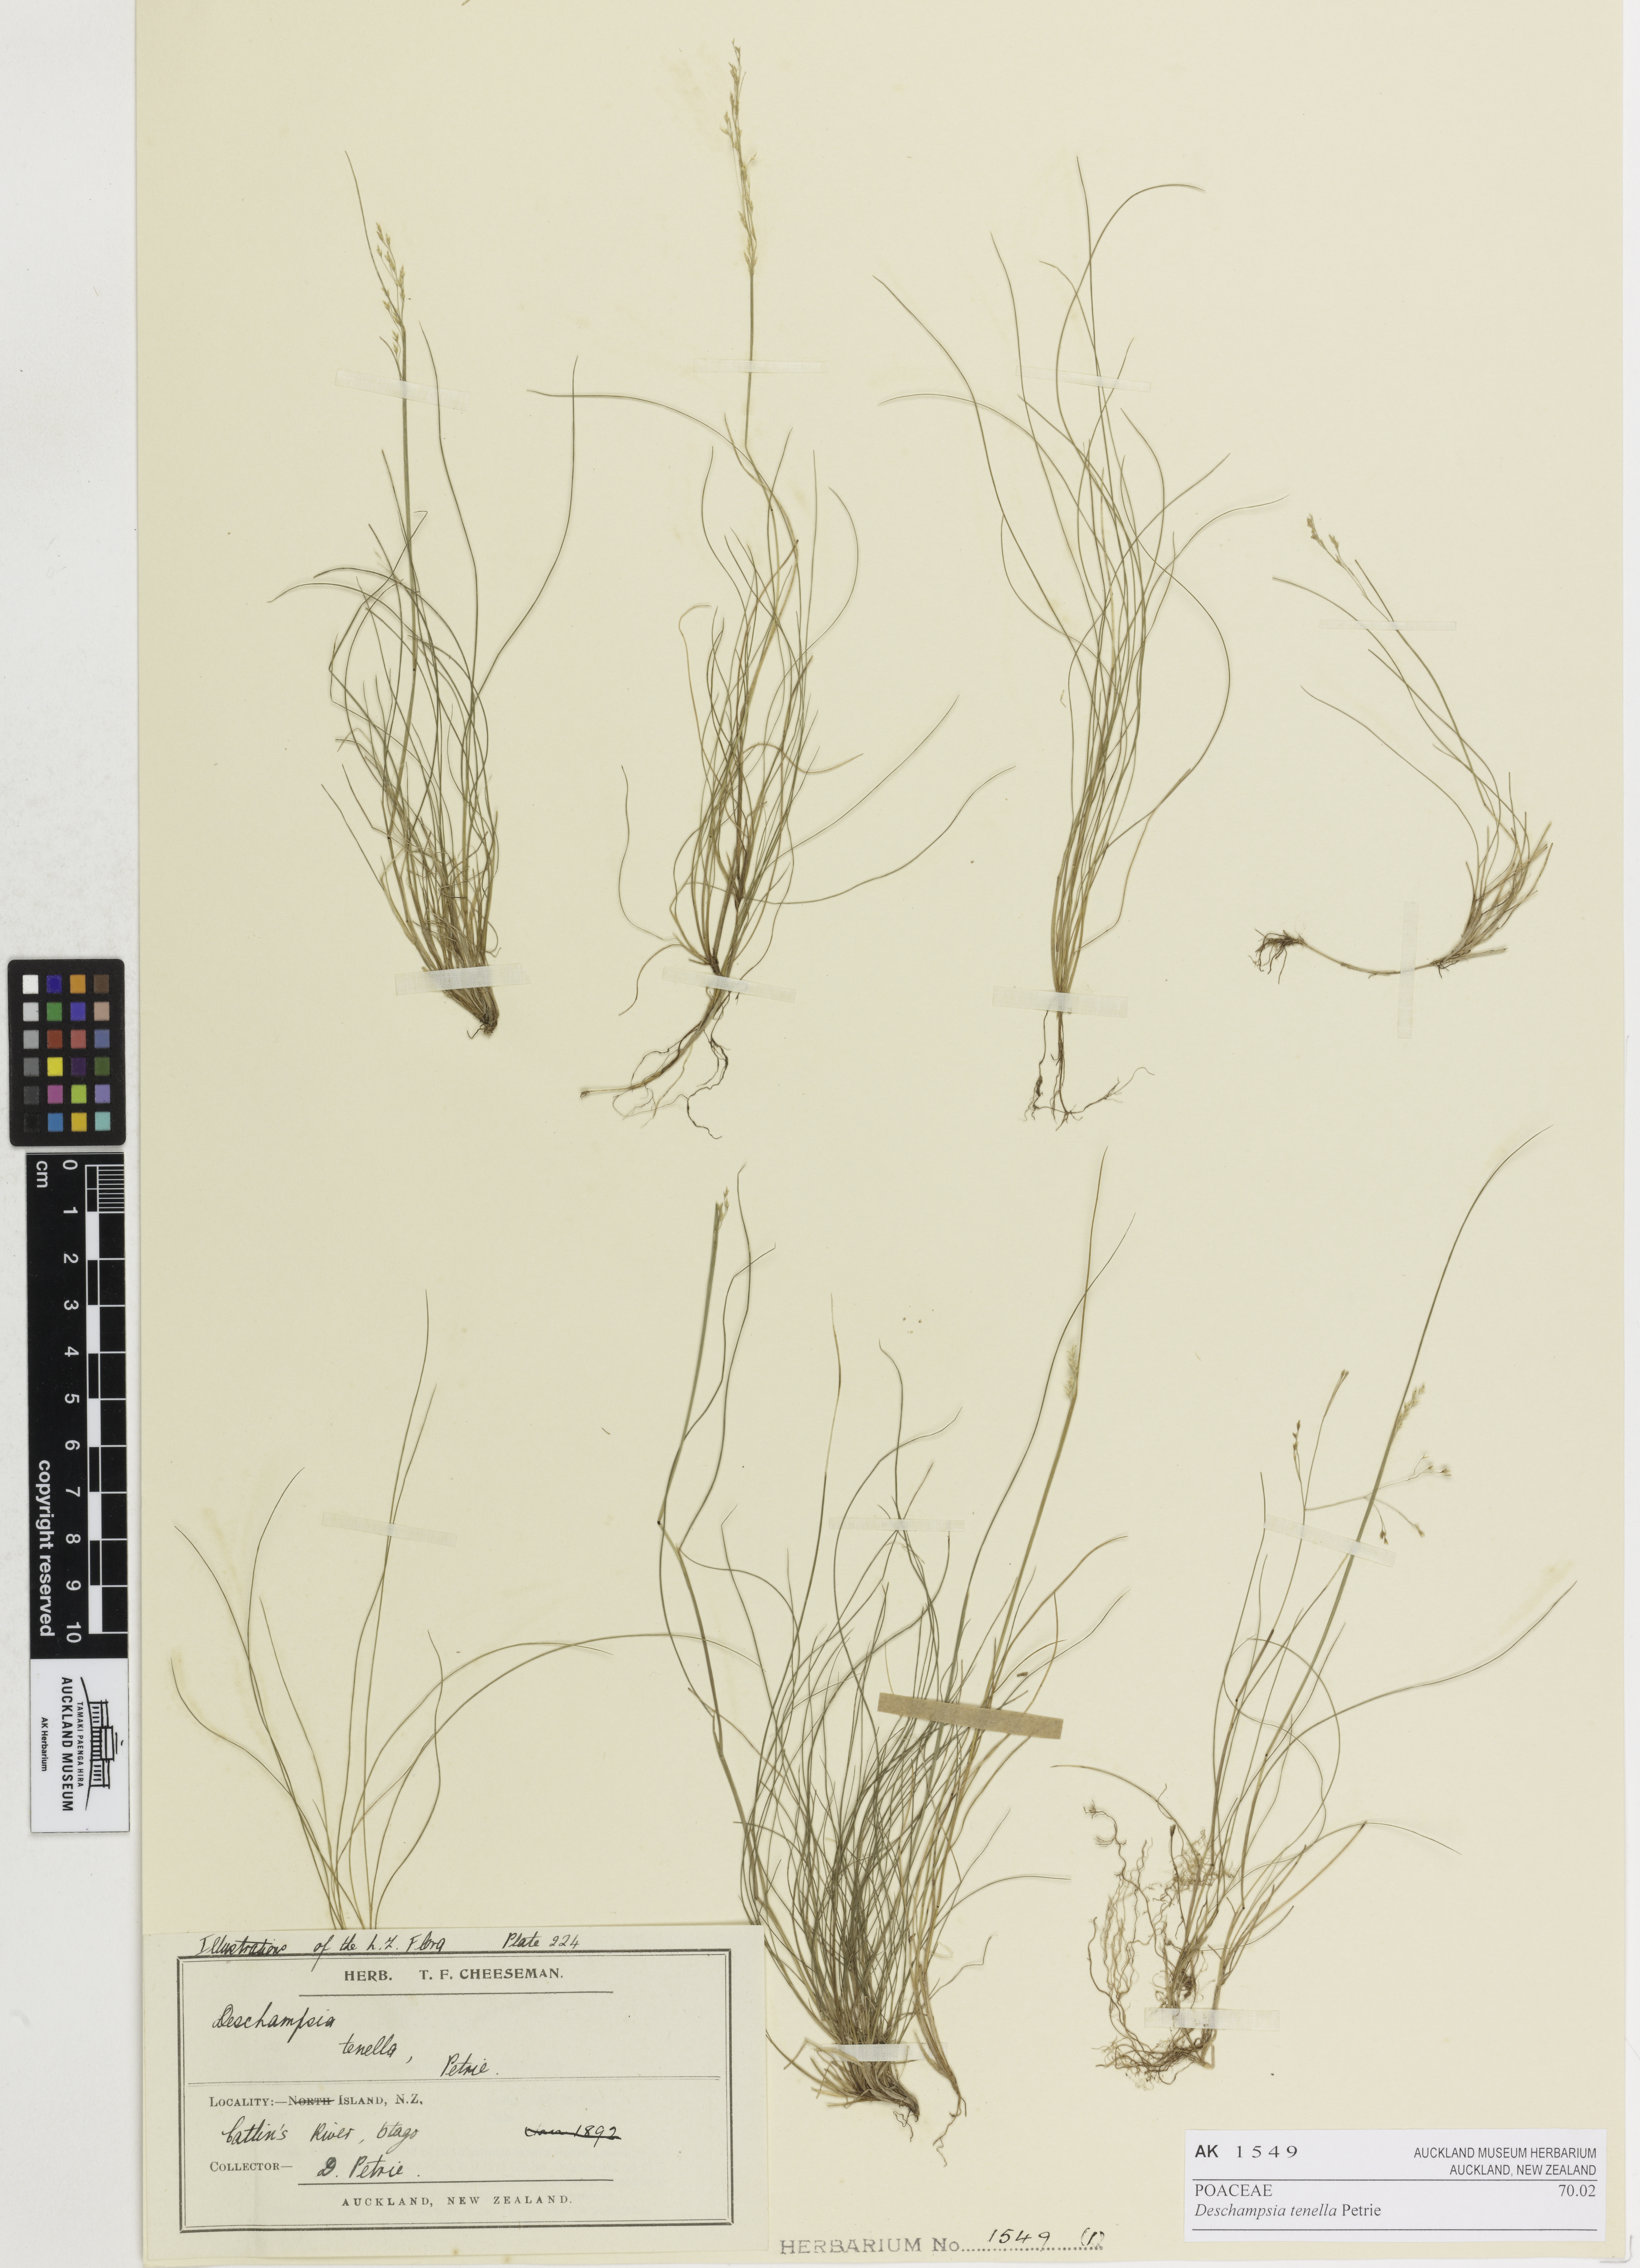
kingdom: Plantae
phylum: Tracheophyta
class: Liliopsida
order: Poales
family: Poaceae
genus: Deschampsia
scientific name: Deschampsia tenella
